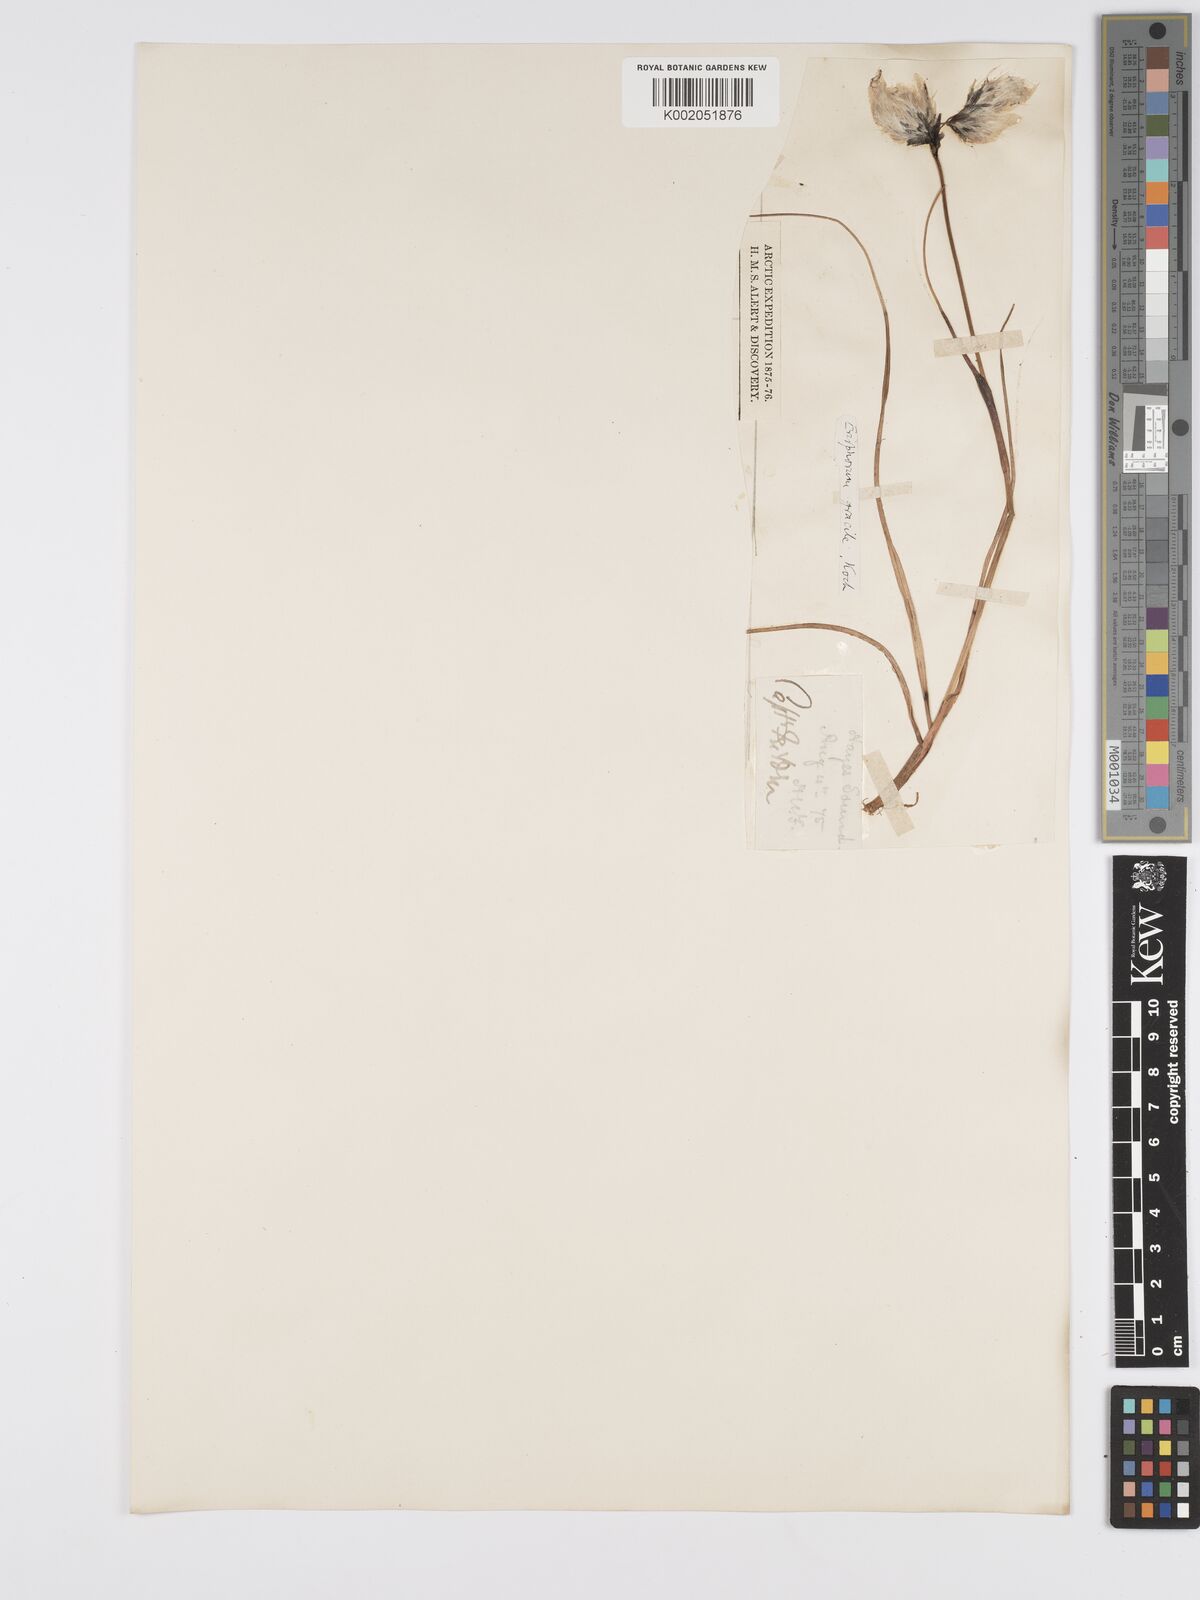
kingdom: Plantae
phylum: Tracheophyta
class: Liliopsida
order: Poales
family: Cyperaceae
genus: Eriophorum
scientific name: Eriophorum gracile
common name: Slender cottongrass
